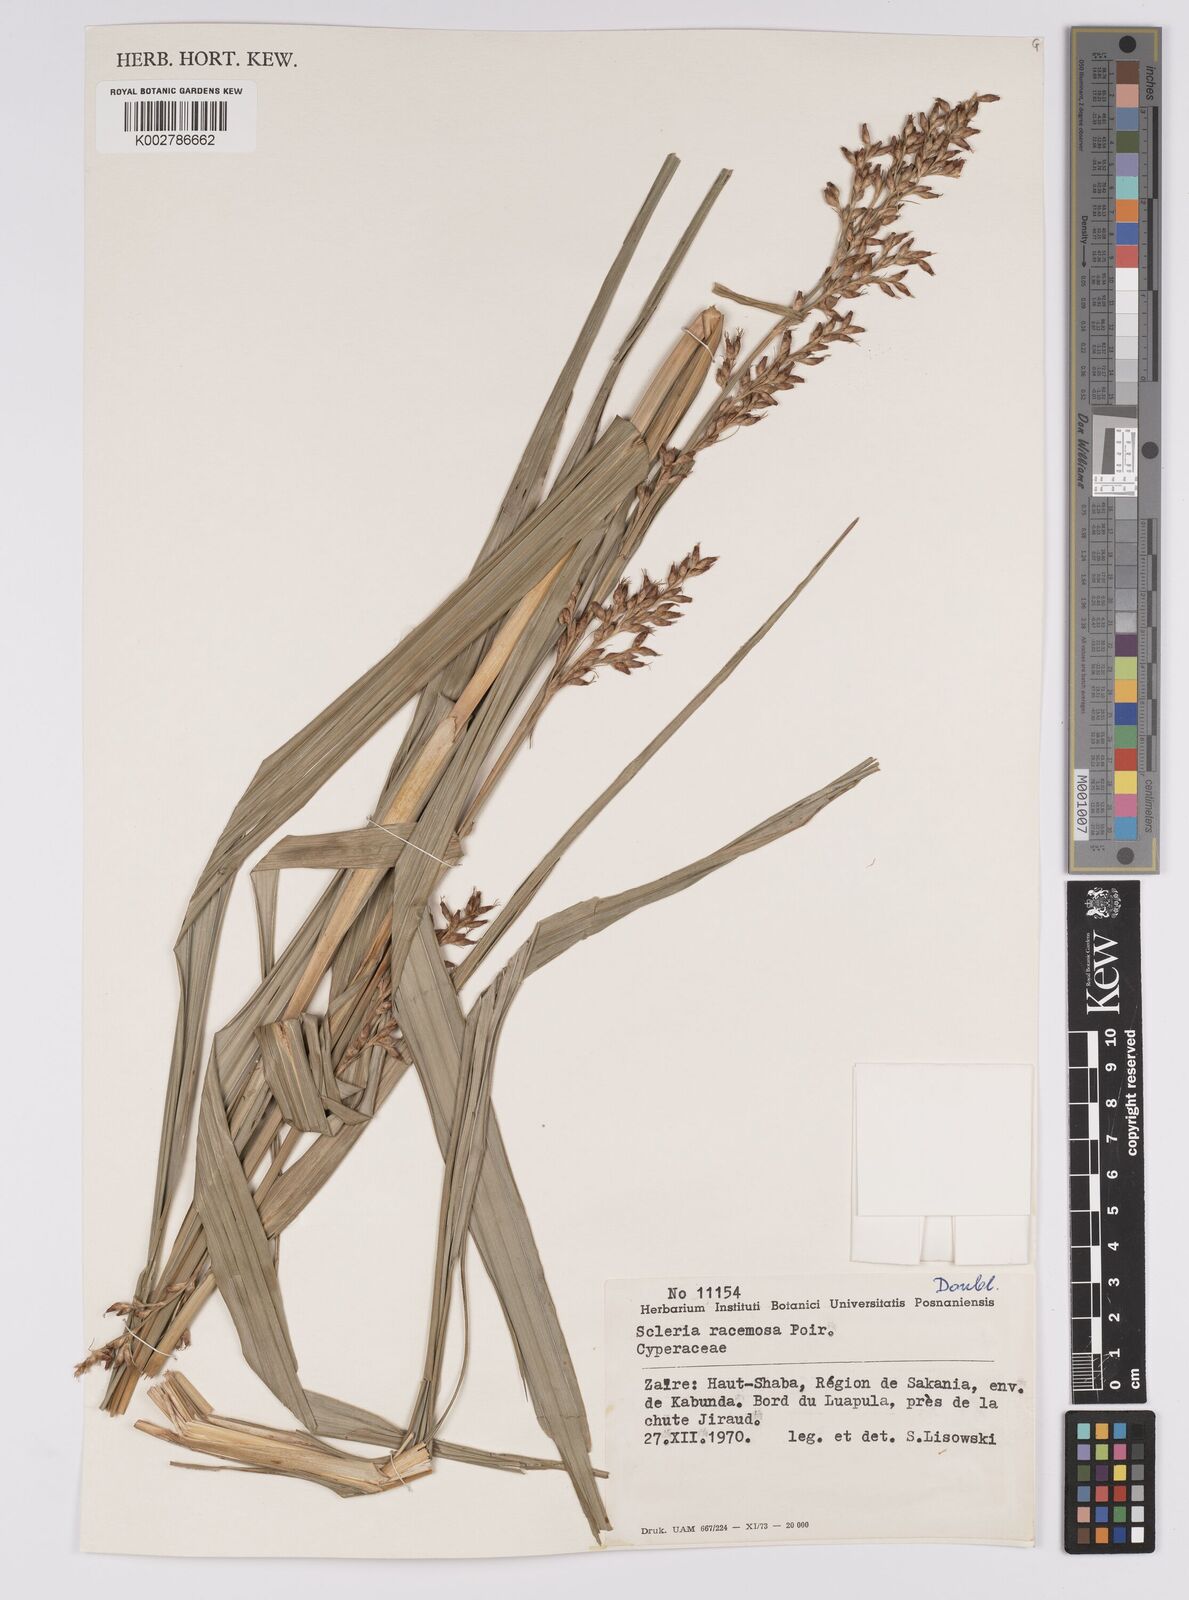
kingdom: Plantae
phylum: Tracheophyta
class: Liliopsida
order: Poales
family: Cyperaceae
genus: Scleria
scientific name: Scleria racemosa
